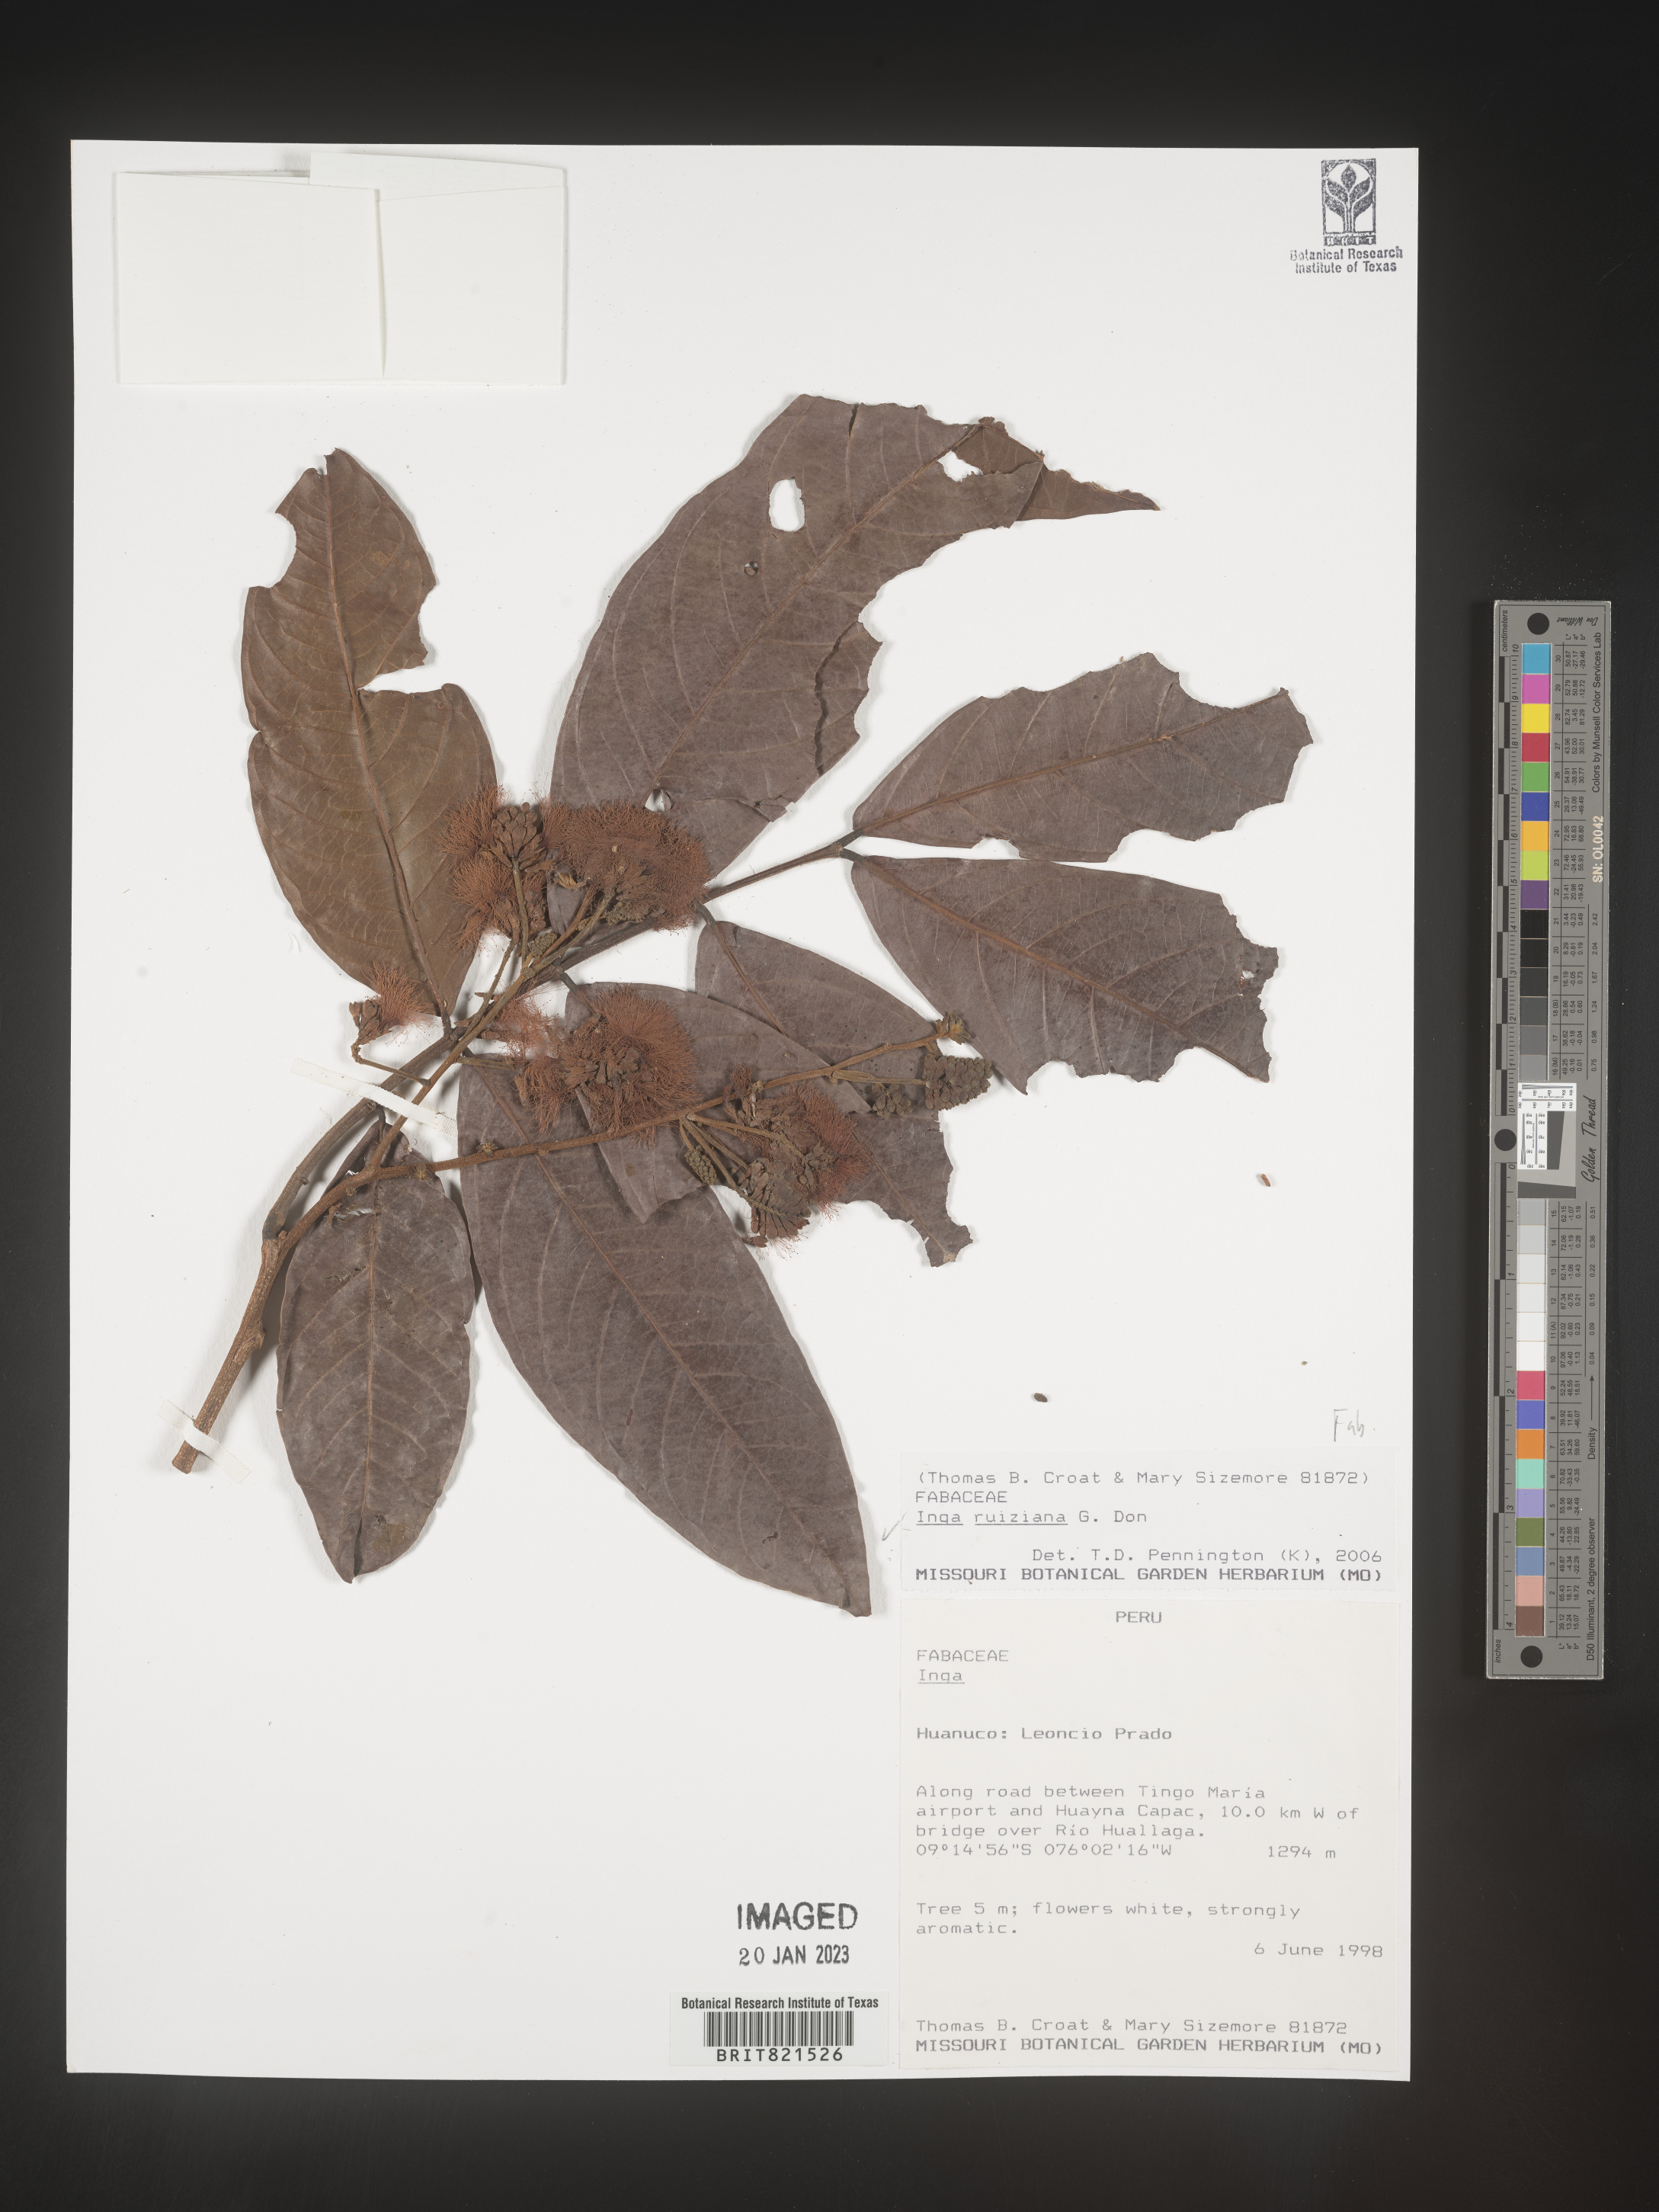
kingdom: Plantae
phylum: Tracheophyta
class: Magnoliopsida
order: Fabales
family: Fabaceae
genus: Inga
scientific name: Inga
